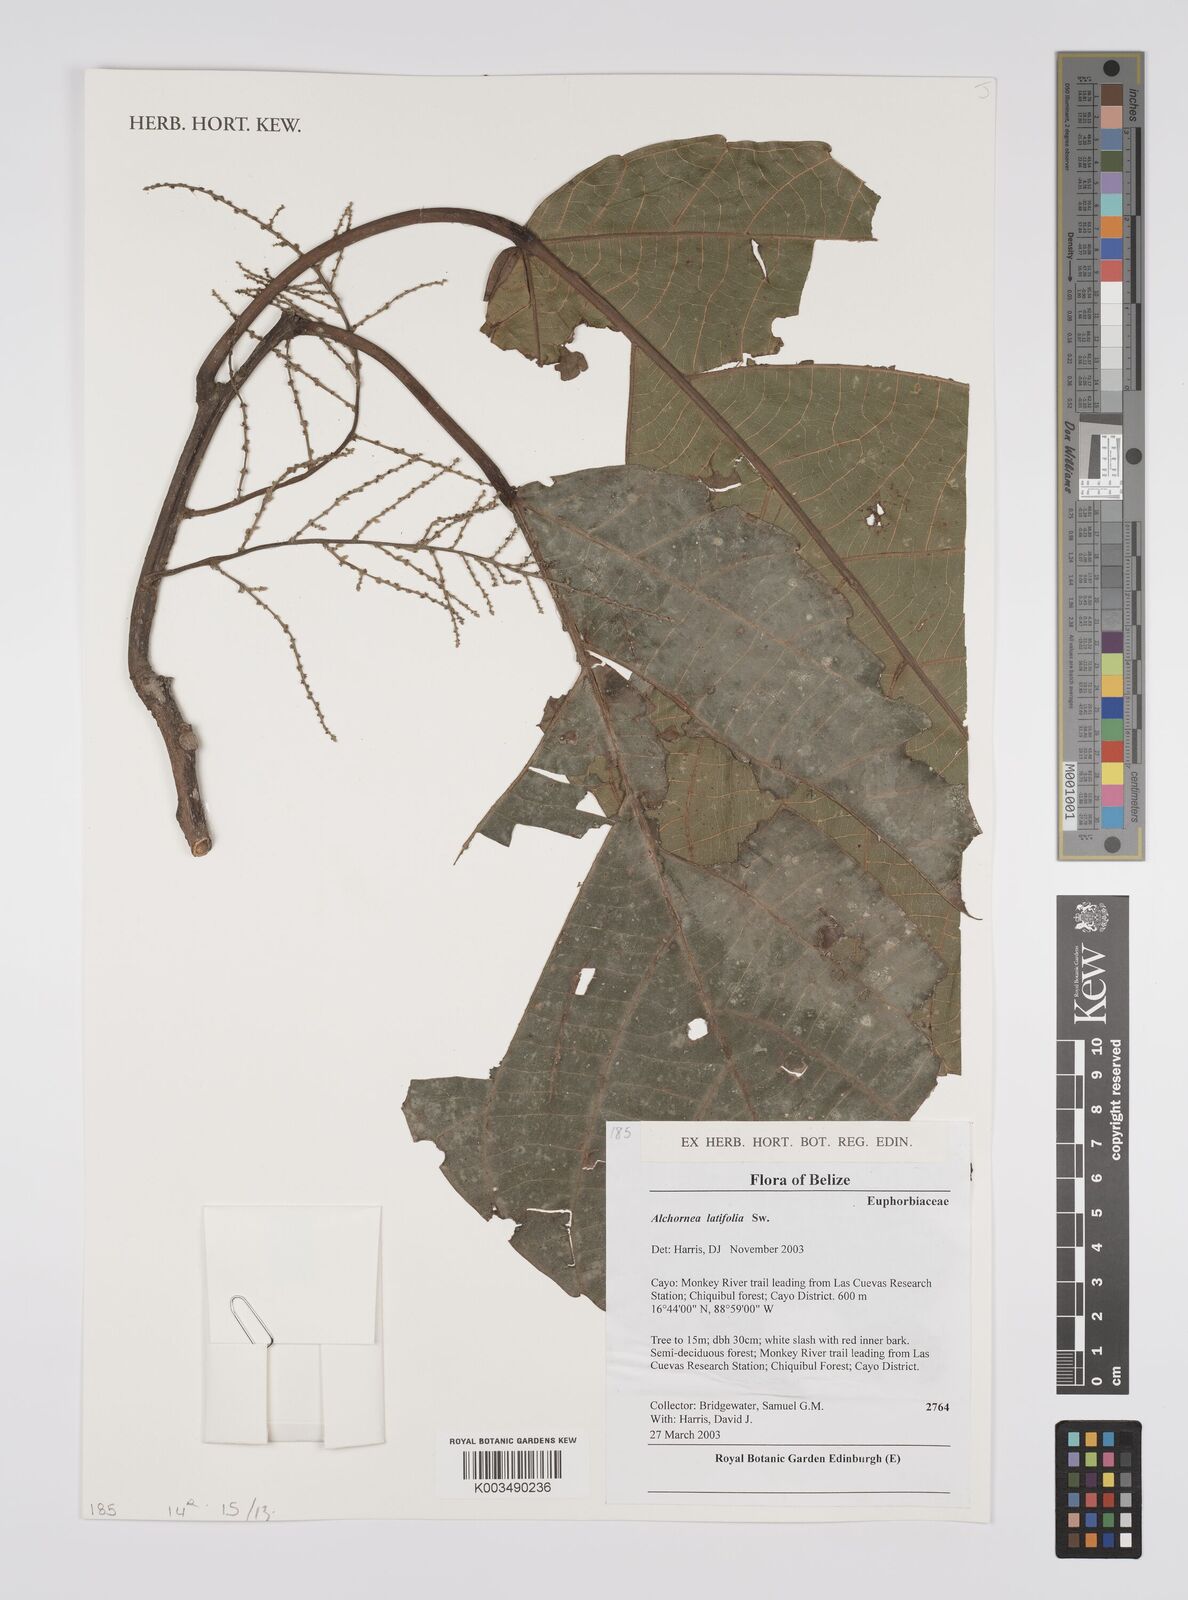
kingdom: Plantae
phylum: Tracheophyta
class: Magnoliopsida
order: Malpighiales
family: Euphorbiaceae
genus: Alchornea
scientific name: Alchornea latifolia
